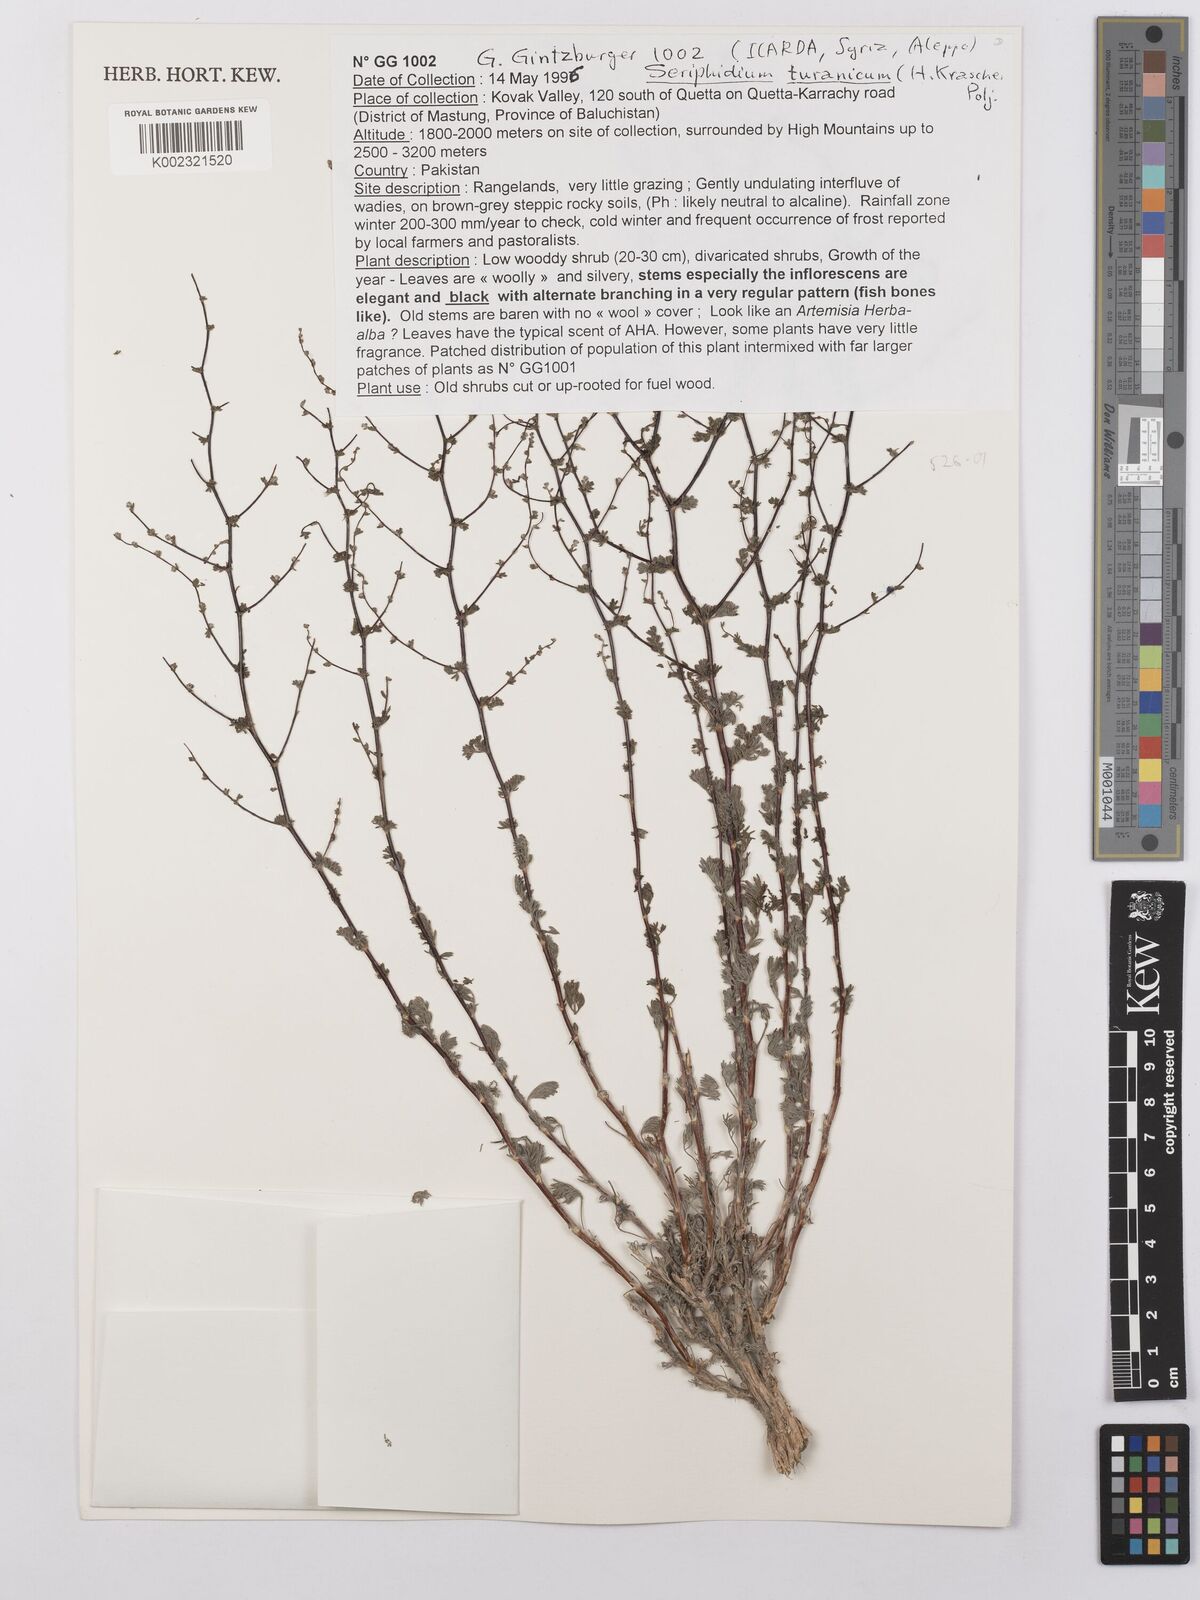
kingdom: Plantae
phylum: Tracheophyta
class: Magnoliopsida
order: Asterales
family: Asteraceae
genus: Artemisia
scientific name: Artemisia turanica
